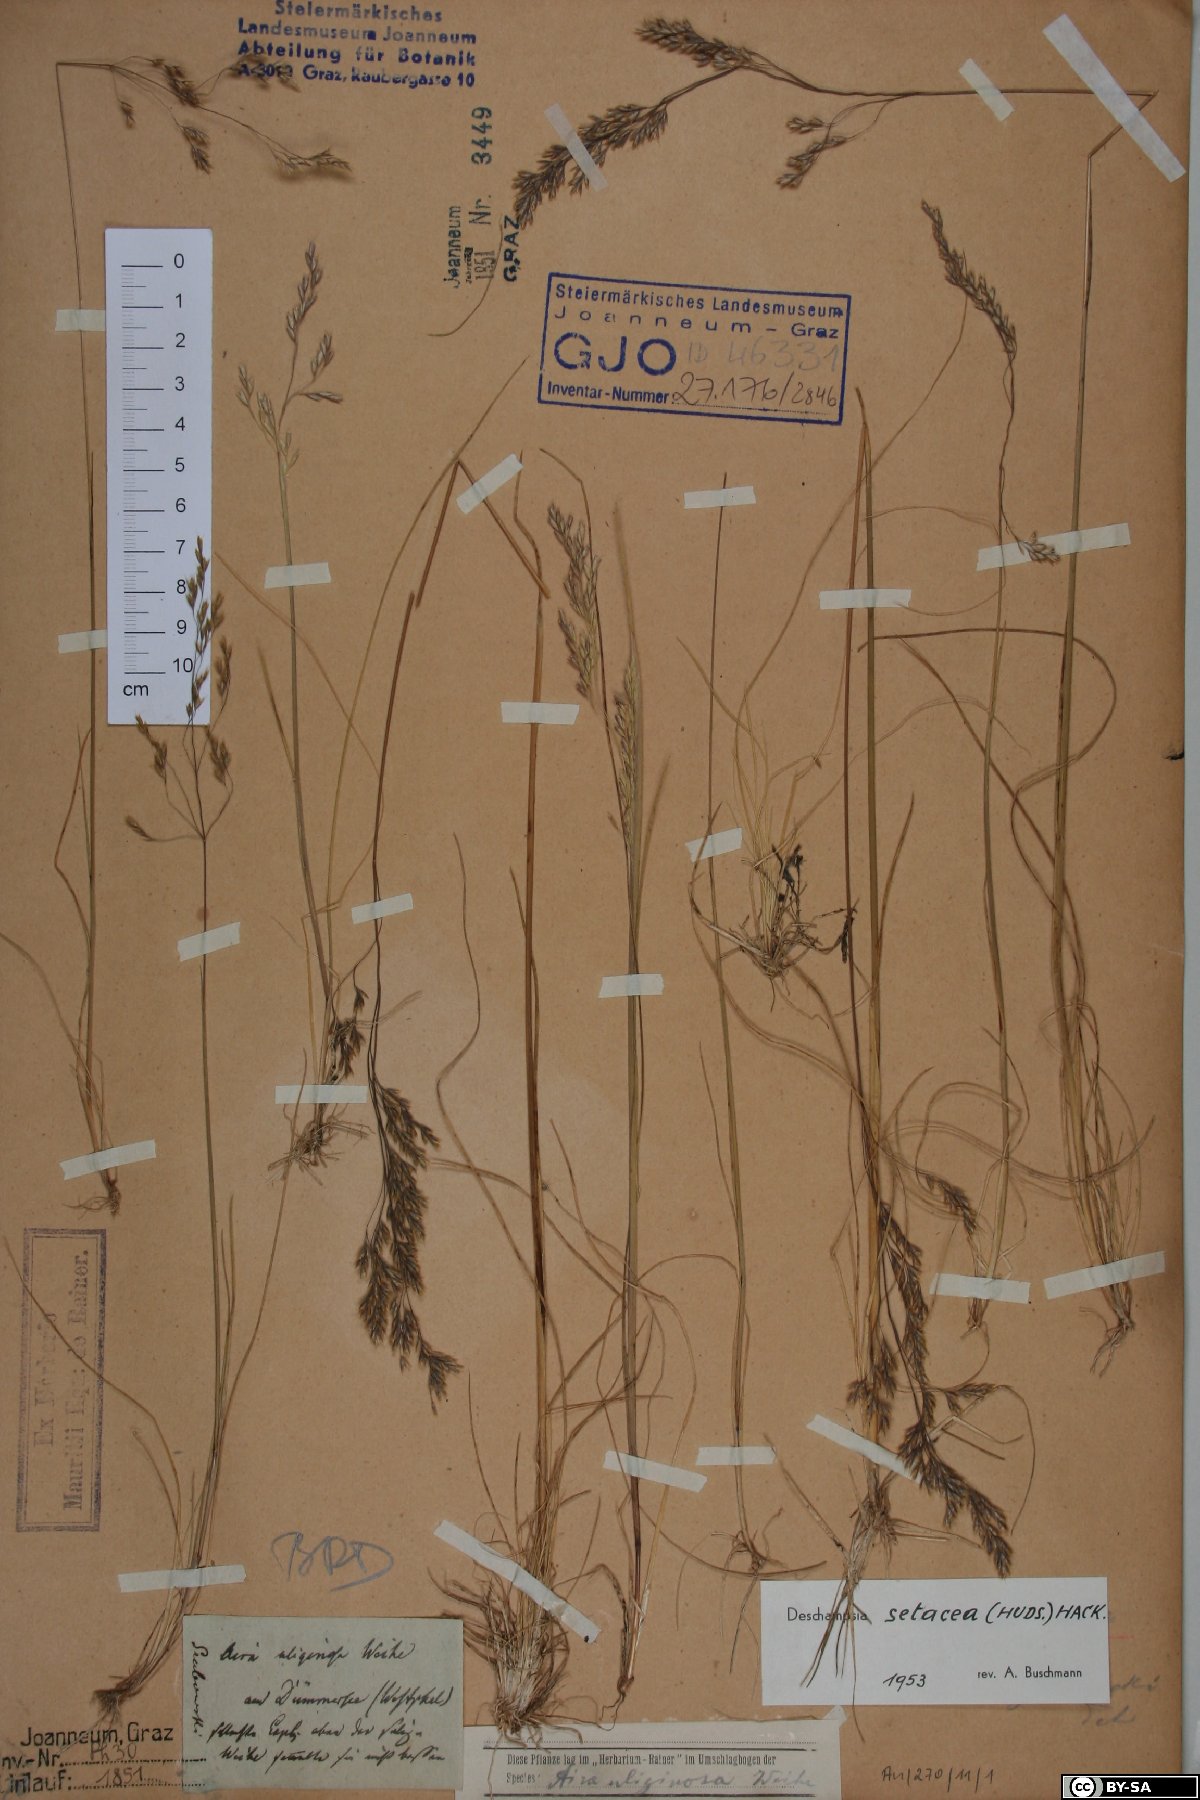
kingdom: Plantae
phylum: Tracheophyta
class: Liliopsida
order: Poales
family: Poaceae
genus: Deschampsia
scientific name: Deschampsia setacea
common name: Bog hair-grass
